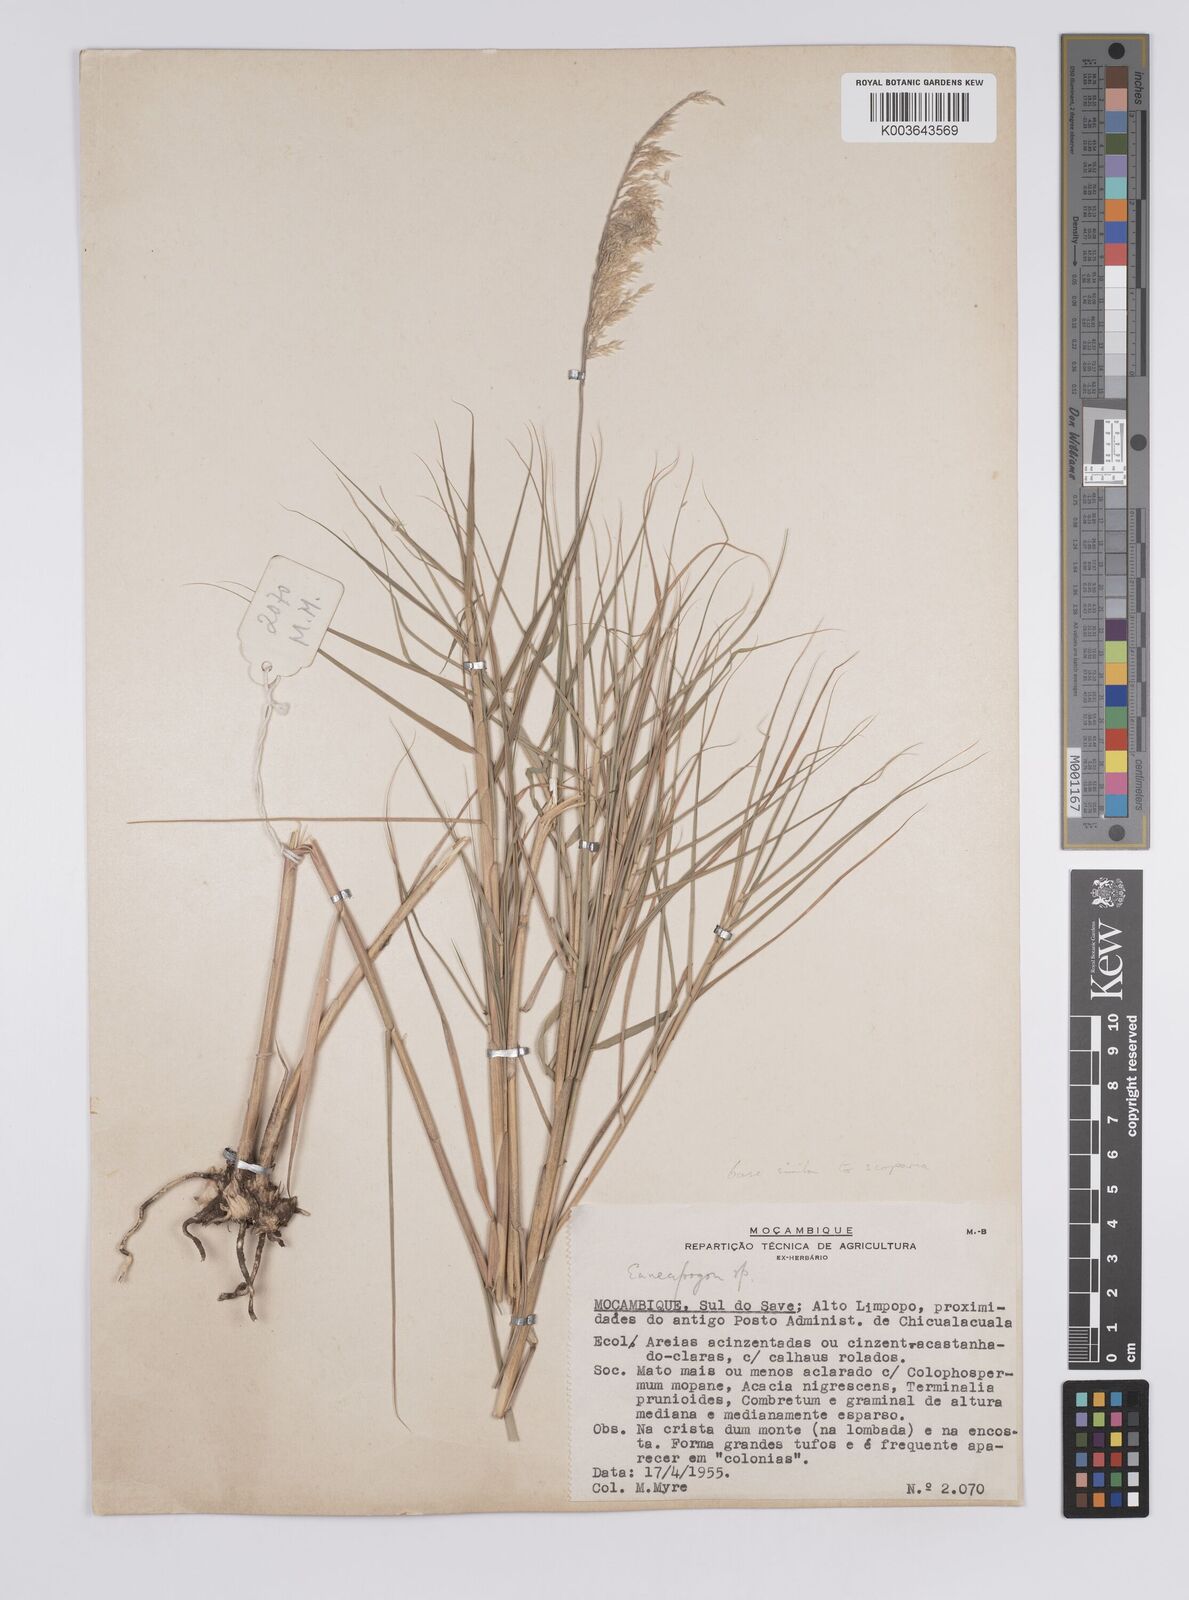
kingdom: Plantae
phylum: Tracheophyta
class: Liliopsida
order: Poales
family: Poaceae
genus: Enneapogon
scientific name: Enneapogon scoparius
